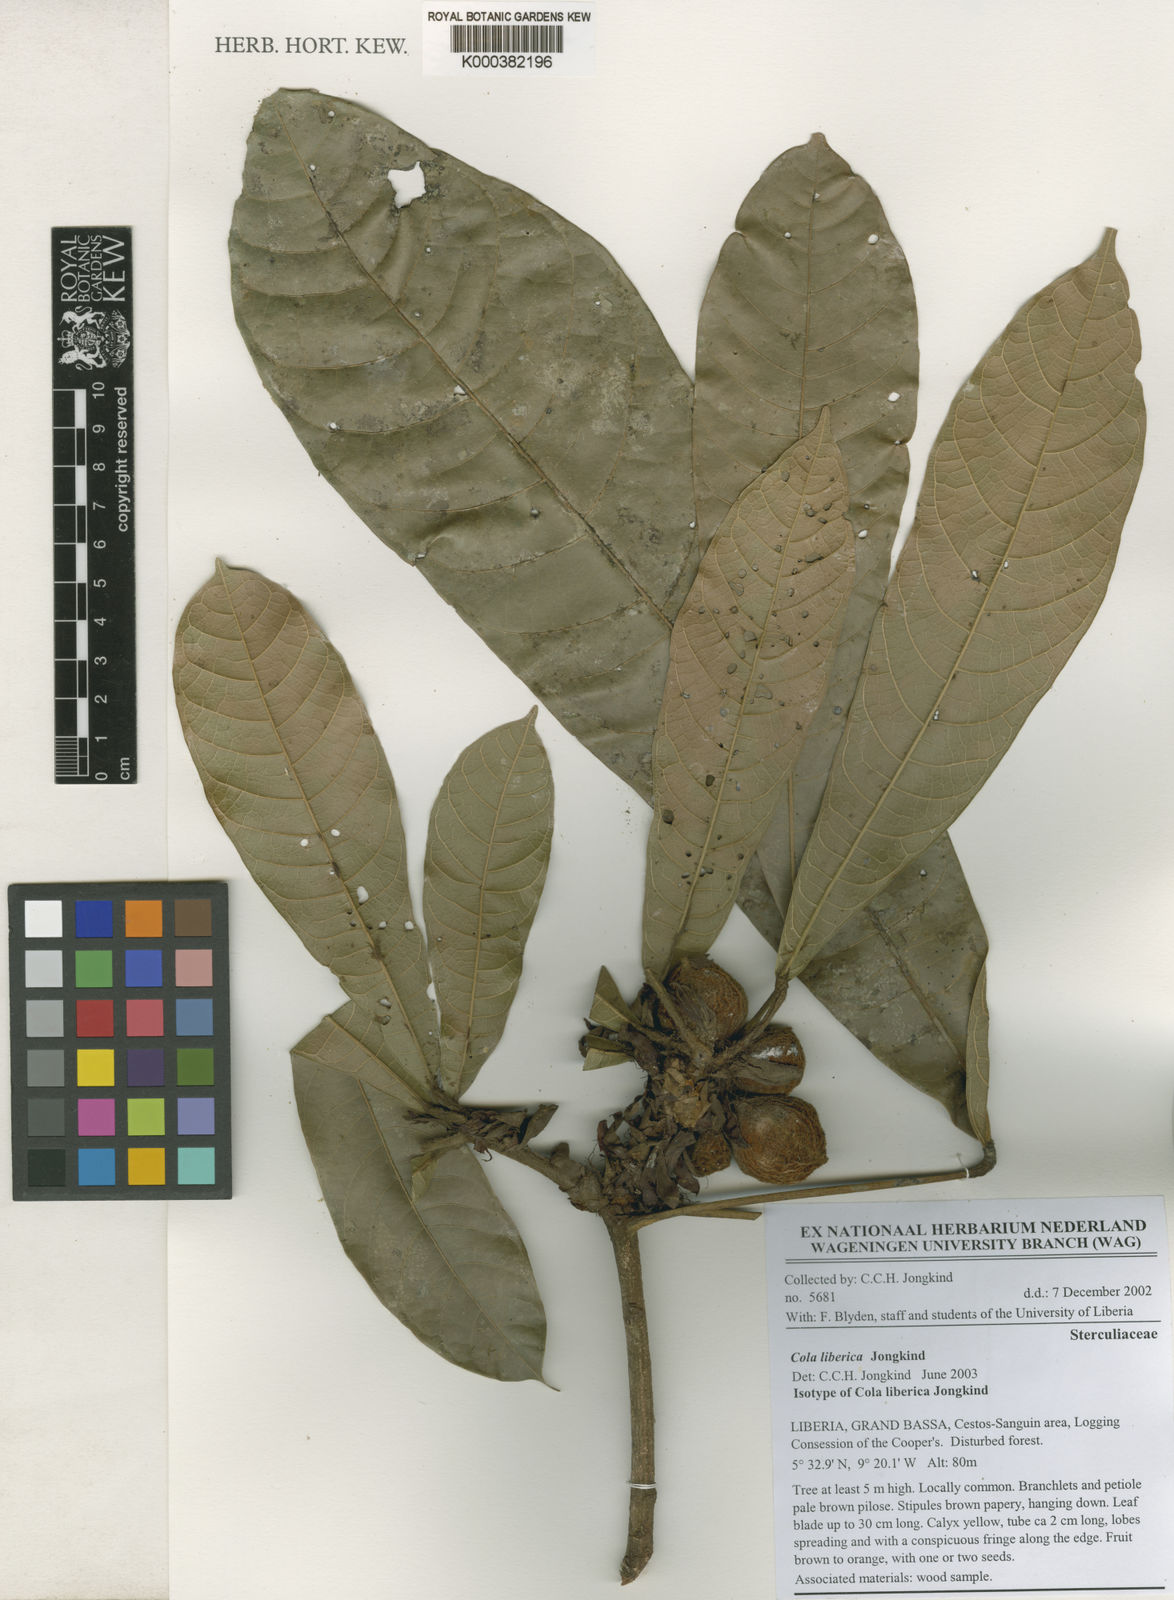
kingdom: Plantae
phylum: Tracheophyta
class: Magnoliopsida
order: Malvales
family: Malvaceae
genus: Cola
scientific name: Cola liberica
